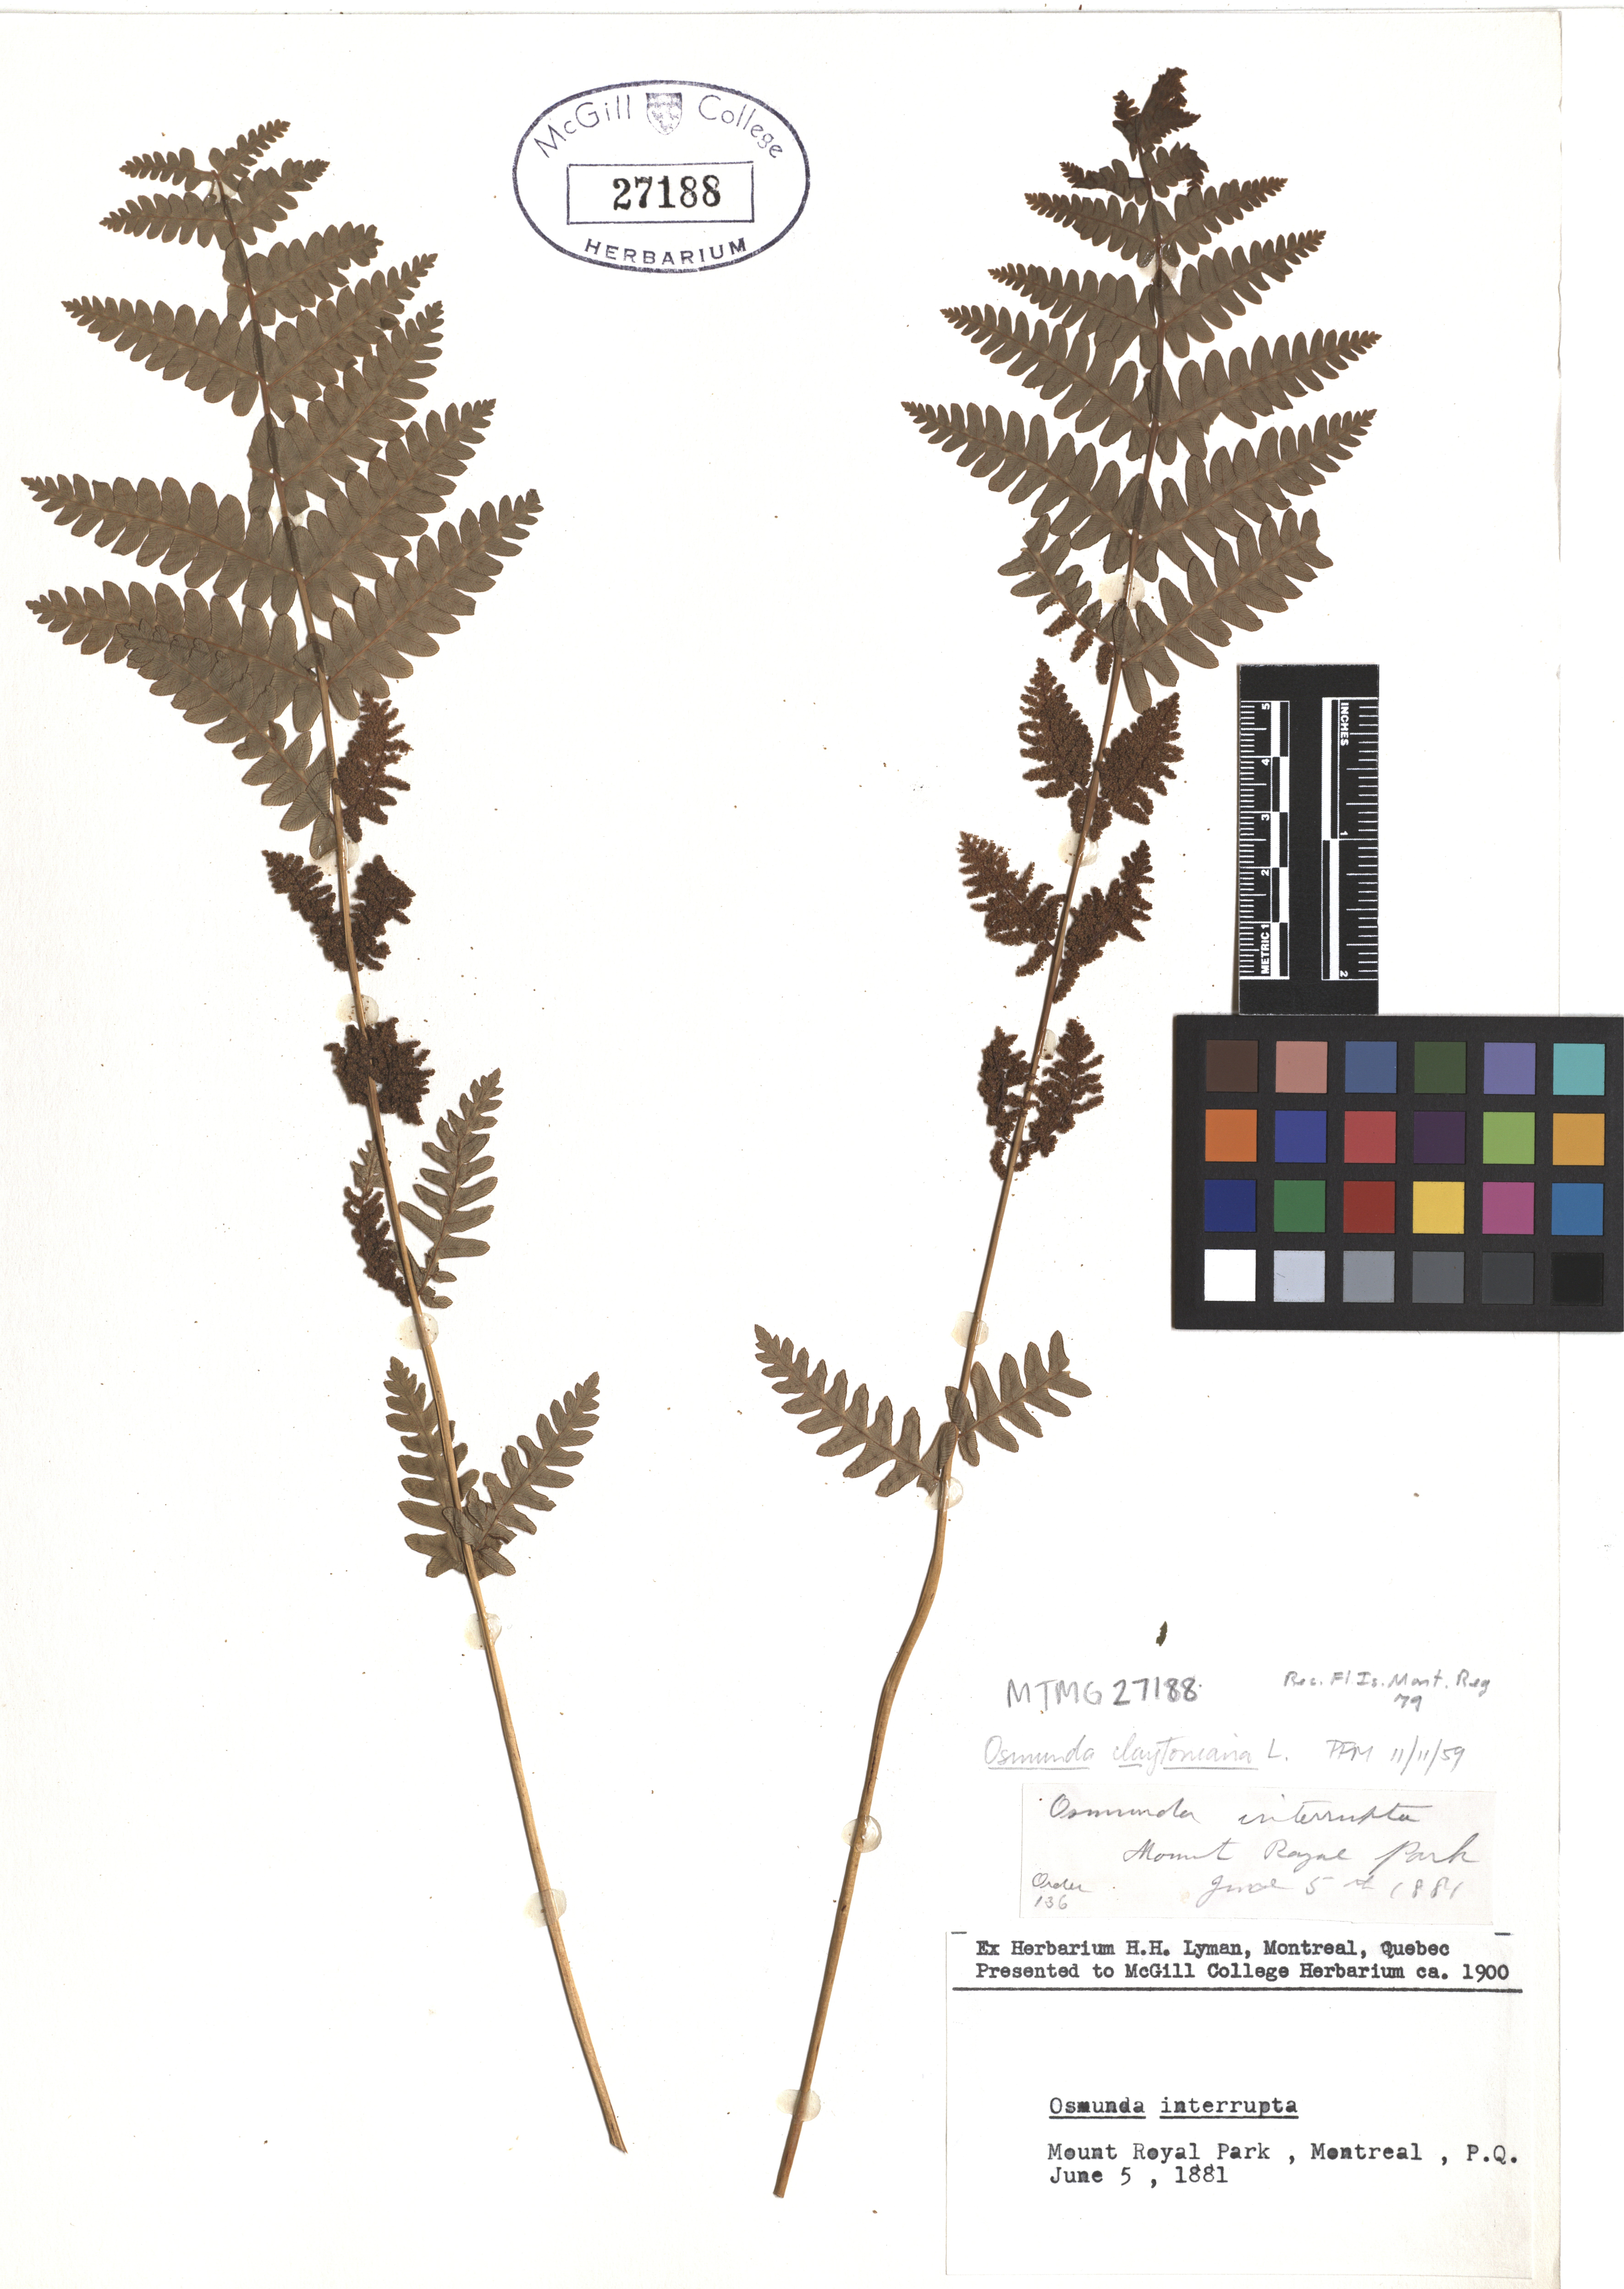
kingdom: Plantae
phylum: Tracheophyta
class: Polypodiopsida
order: Osmundales
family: Osmundaceae
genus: Claytosmunda
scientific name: Claytosmunda claytoniana
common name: Clayton's fern
